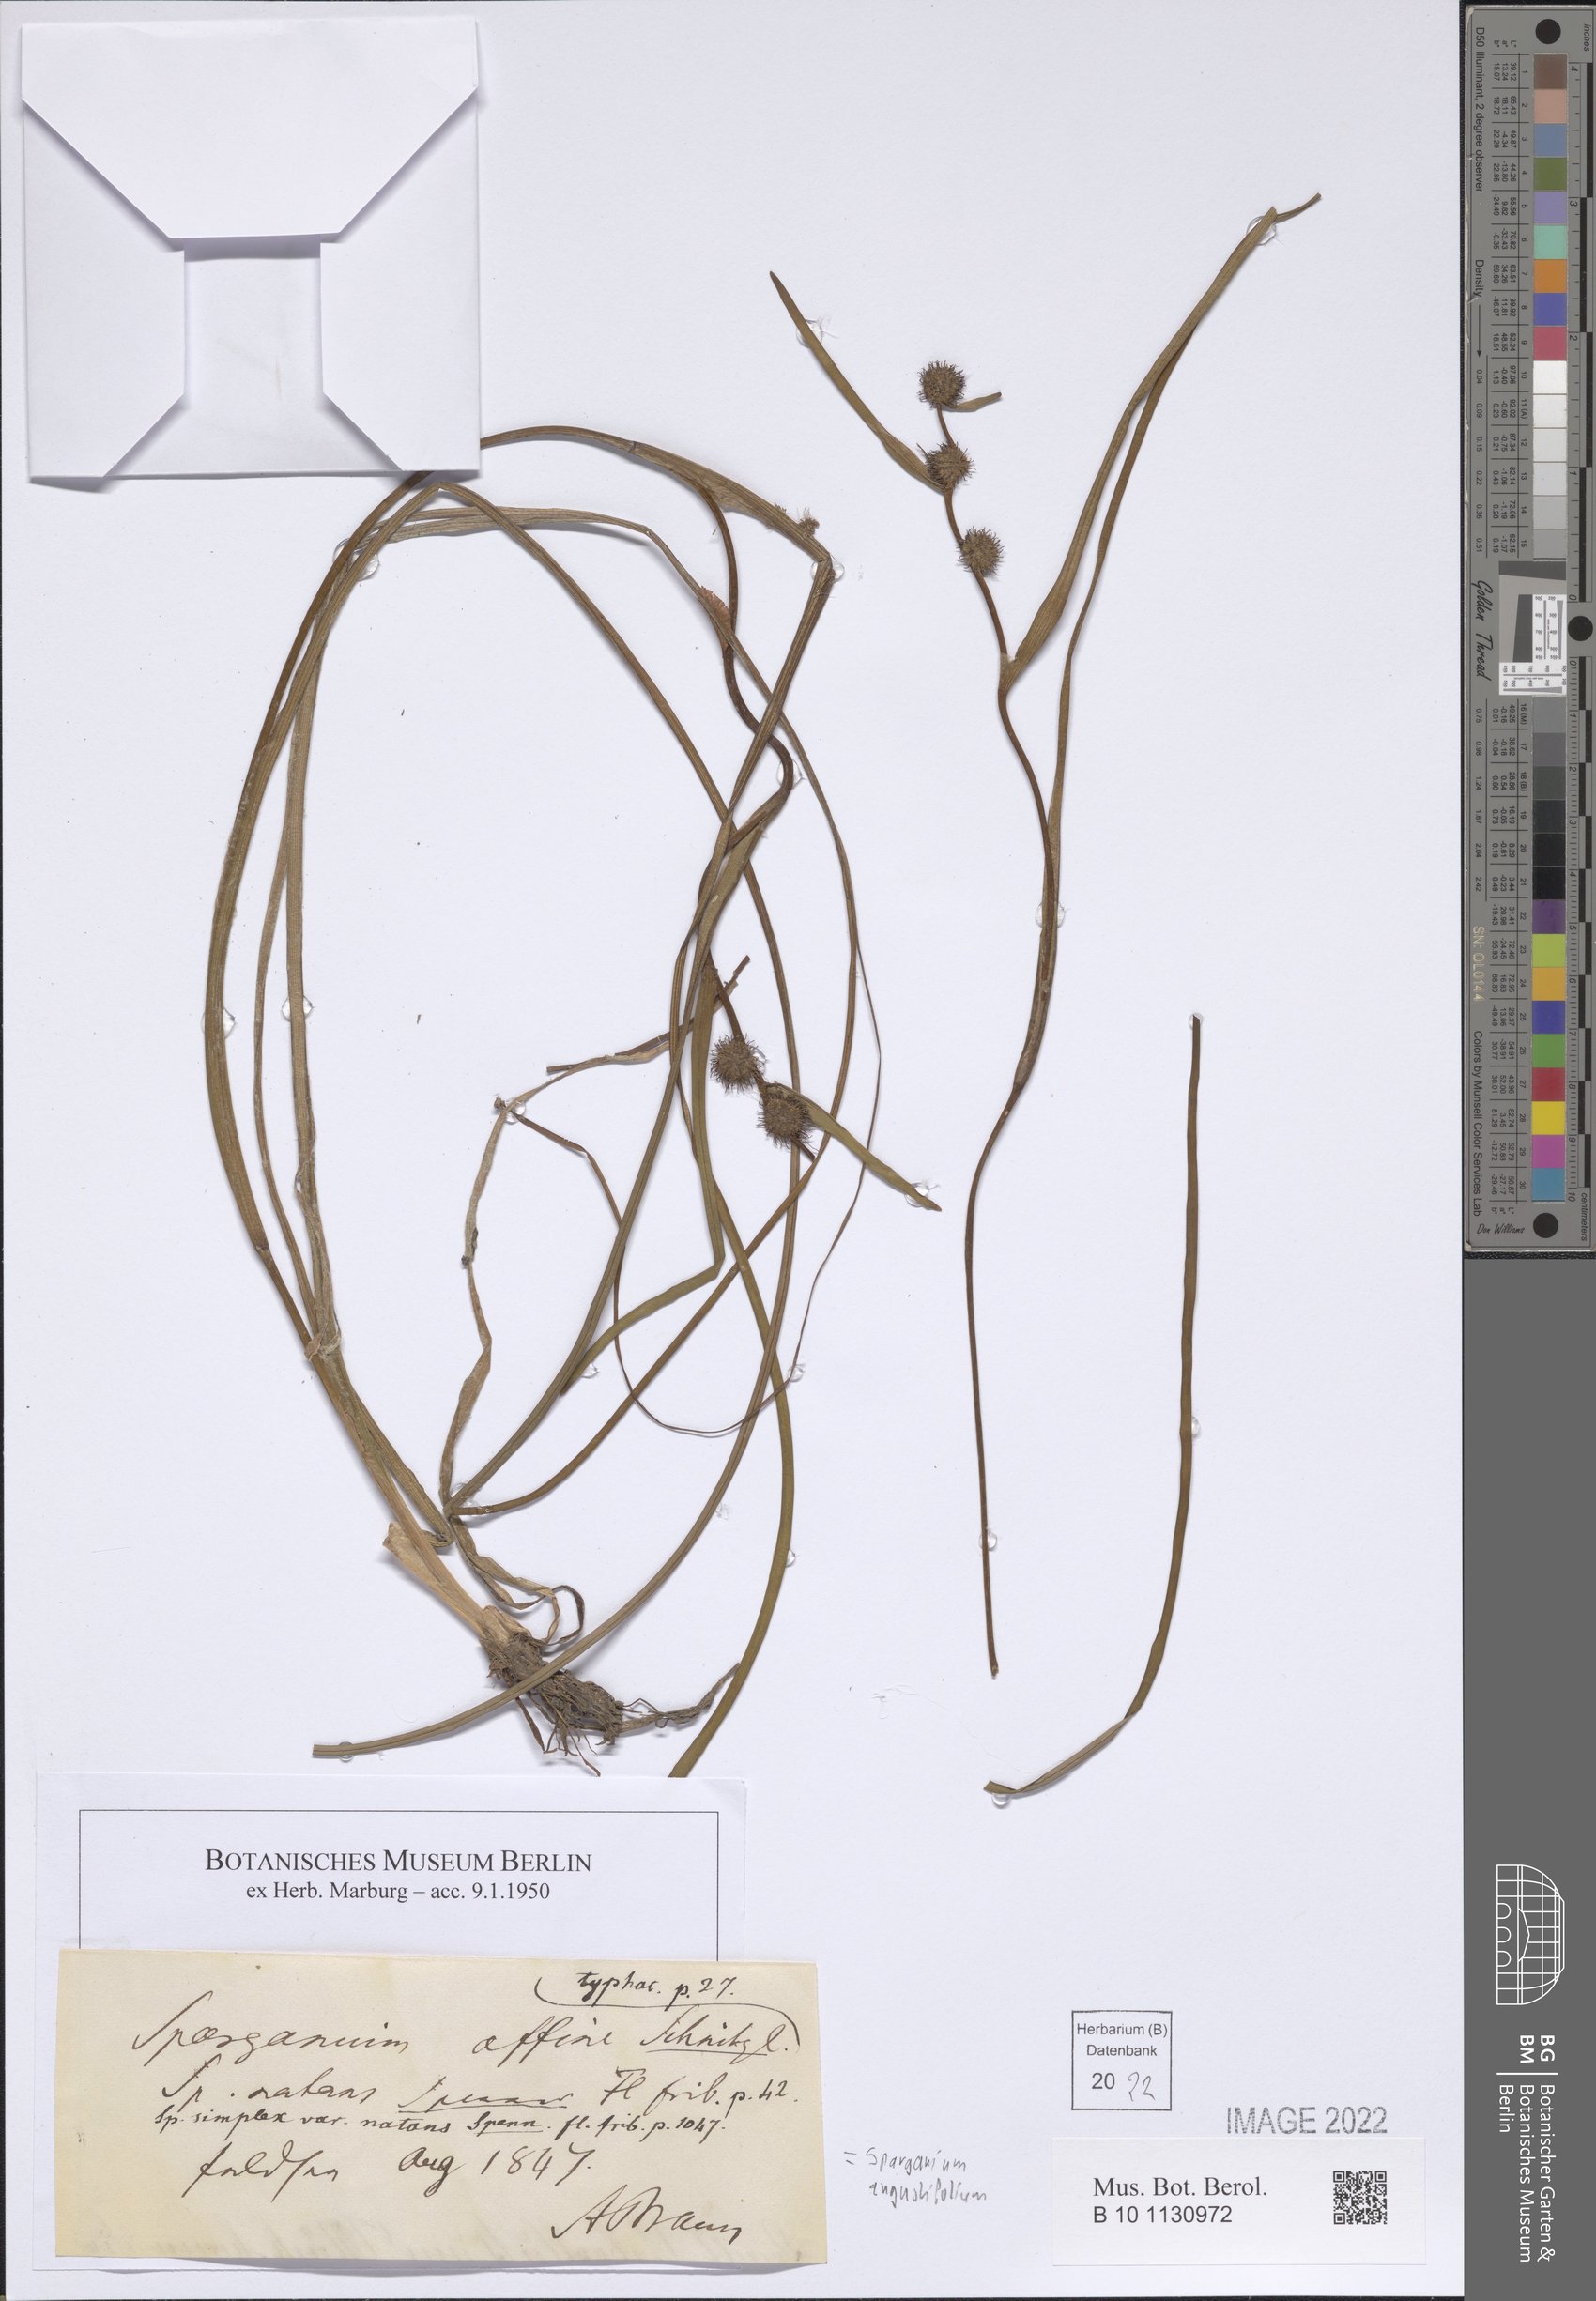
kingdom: Plantae
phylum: Tracheophyta
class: Liliopsida
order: Poales
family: Typhaceae
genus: Sparganium
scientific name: Sparganium angustifolium
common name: Floating bur-reed
